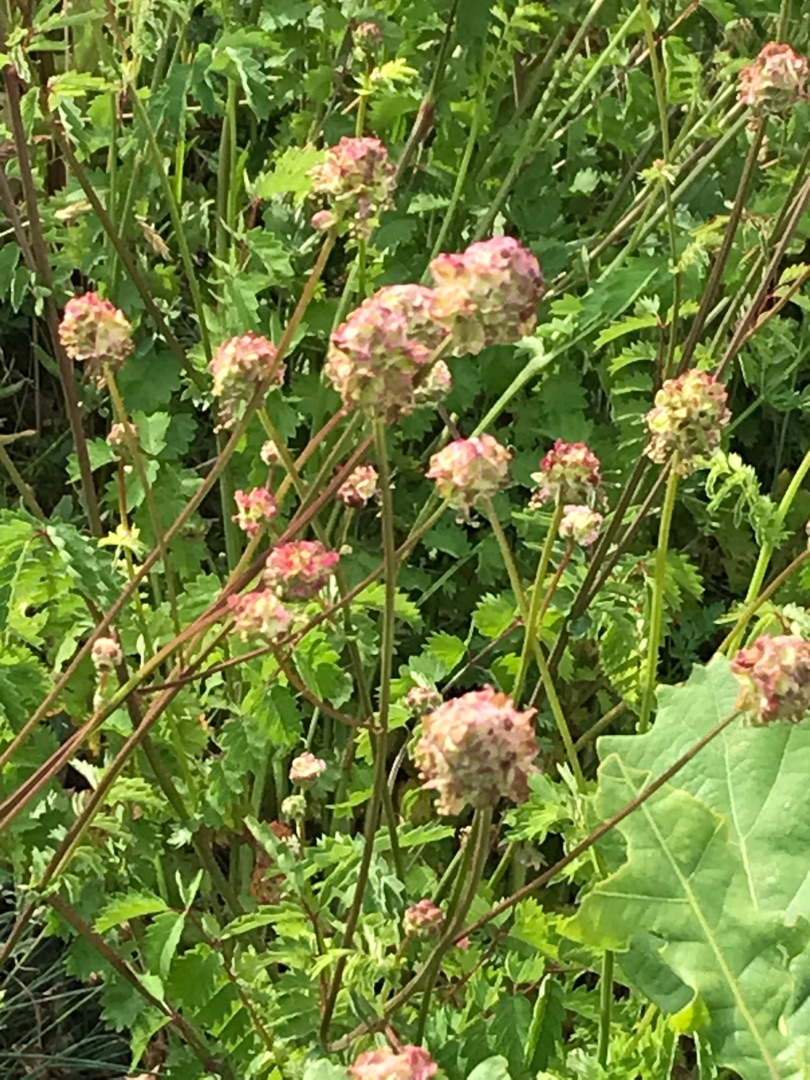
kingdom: Plantae
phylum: Tracheophyta
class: Magnoliopsida
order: Rosales
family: Rosaceae
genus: Poterium
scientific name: Poterium sanguisorba
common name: Bibernelle
